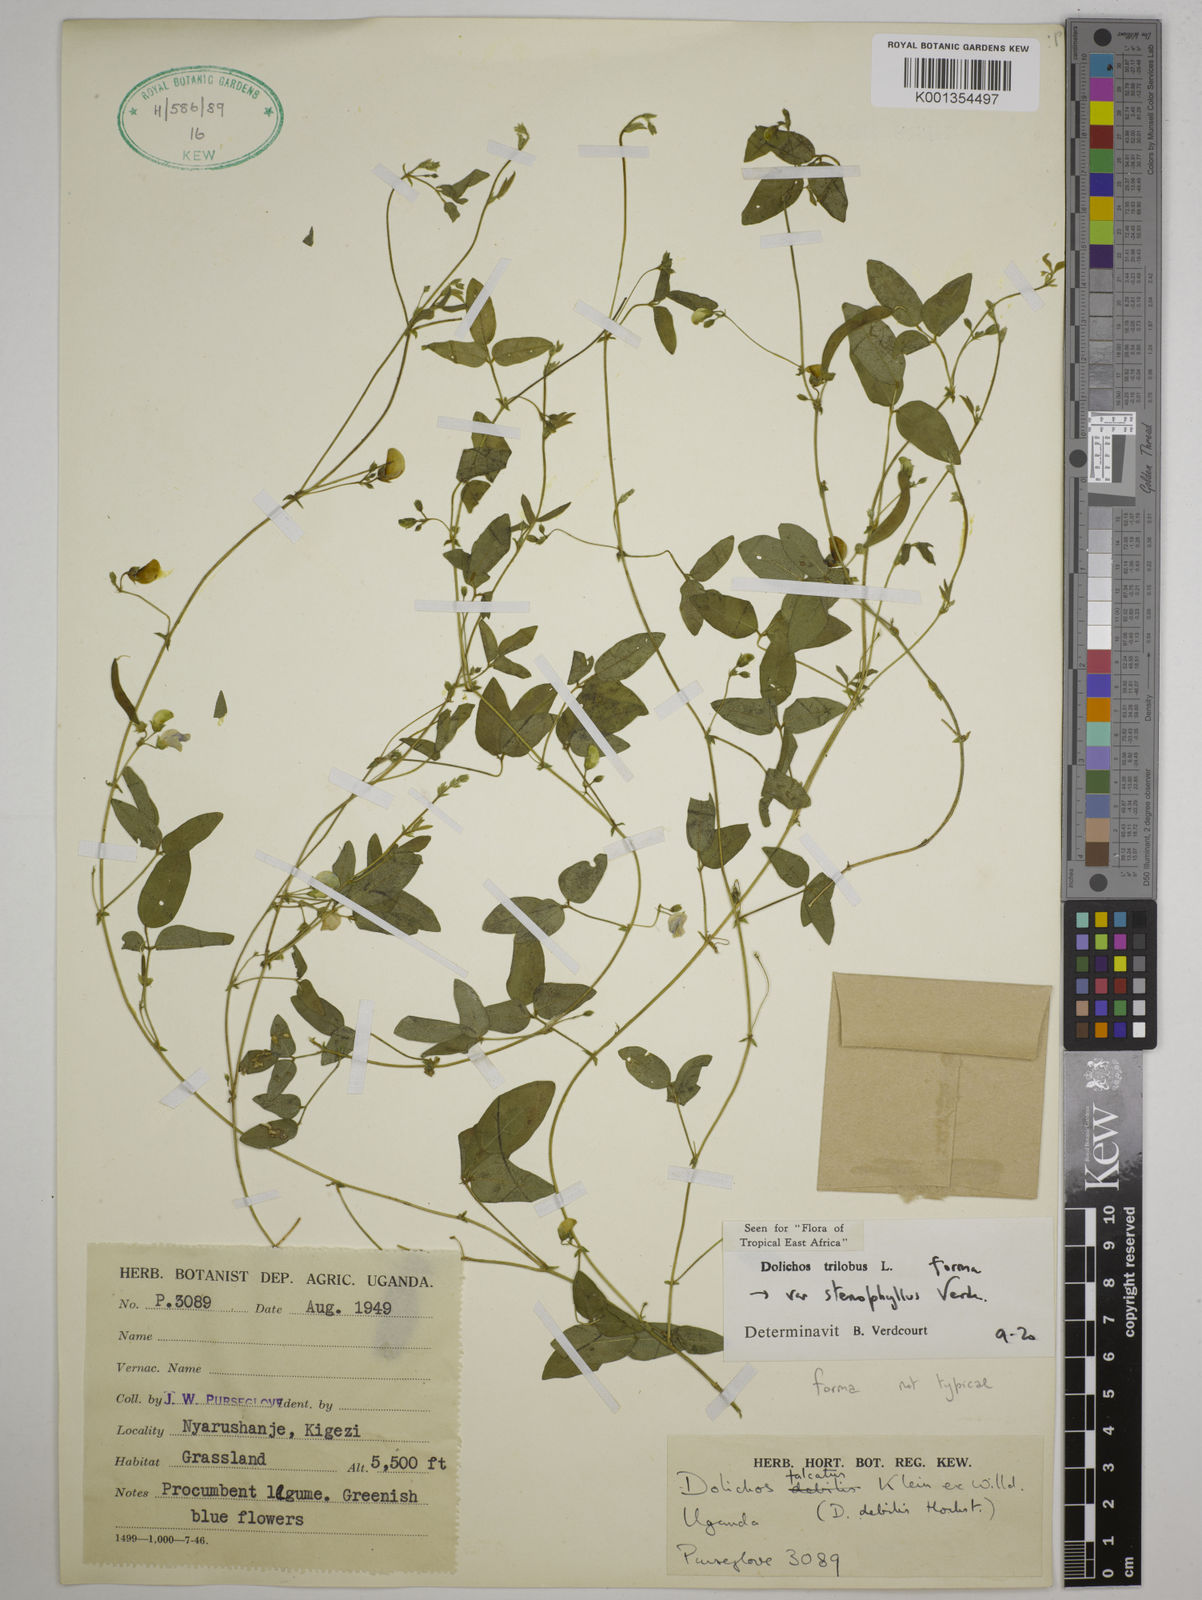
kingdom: Plantae
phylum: Tracheophyta
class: Magnoliopsida
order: Fabales
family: Fabaceae
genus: Dolichos
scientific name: Dolichos
